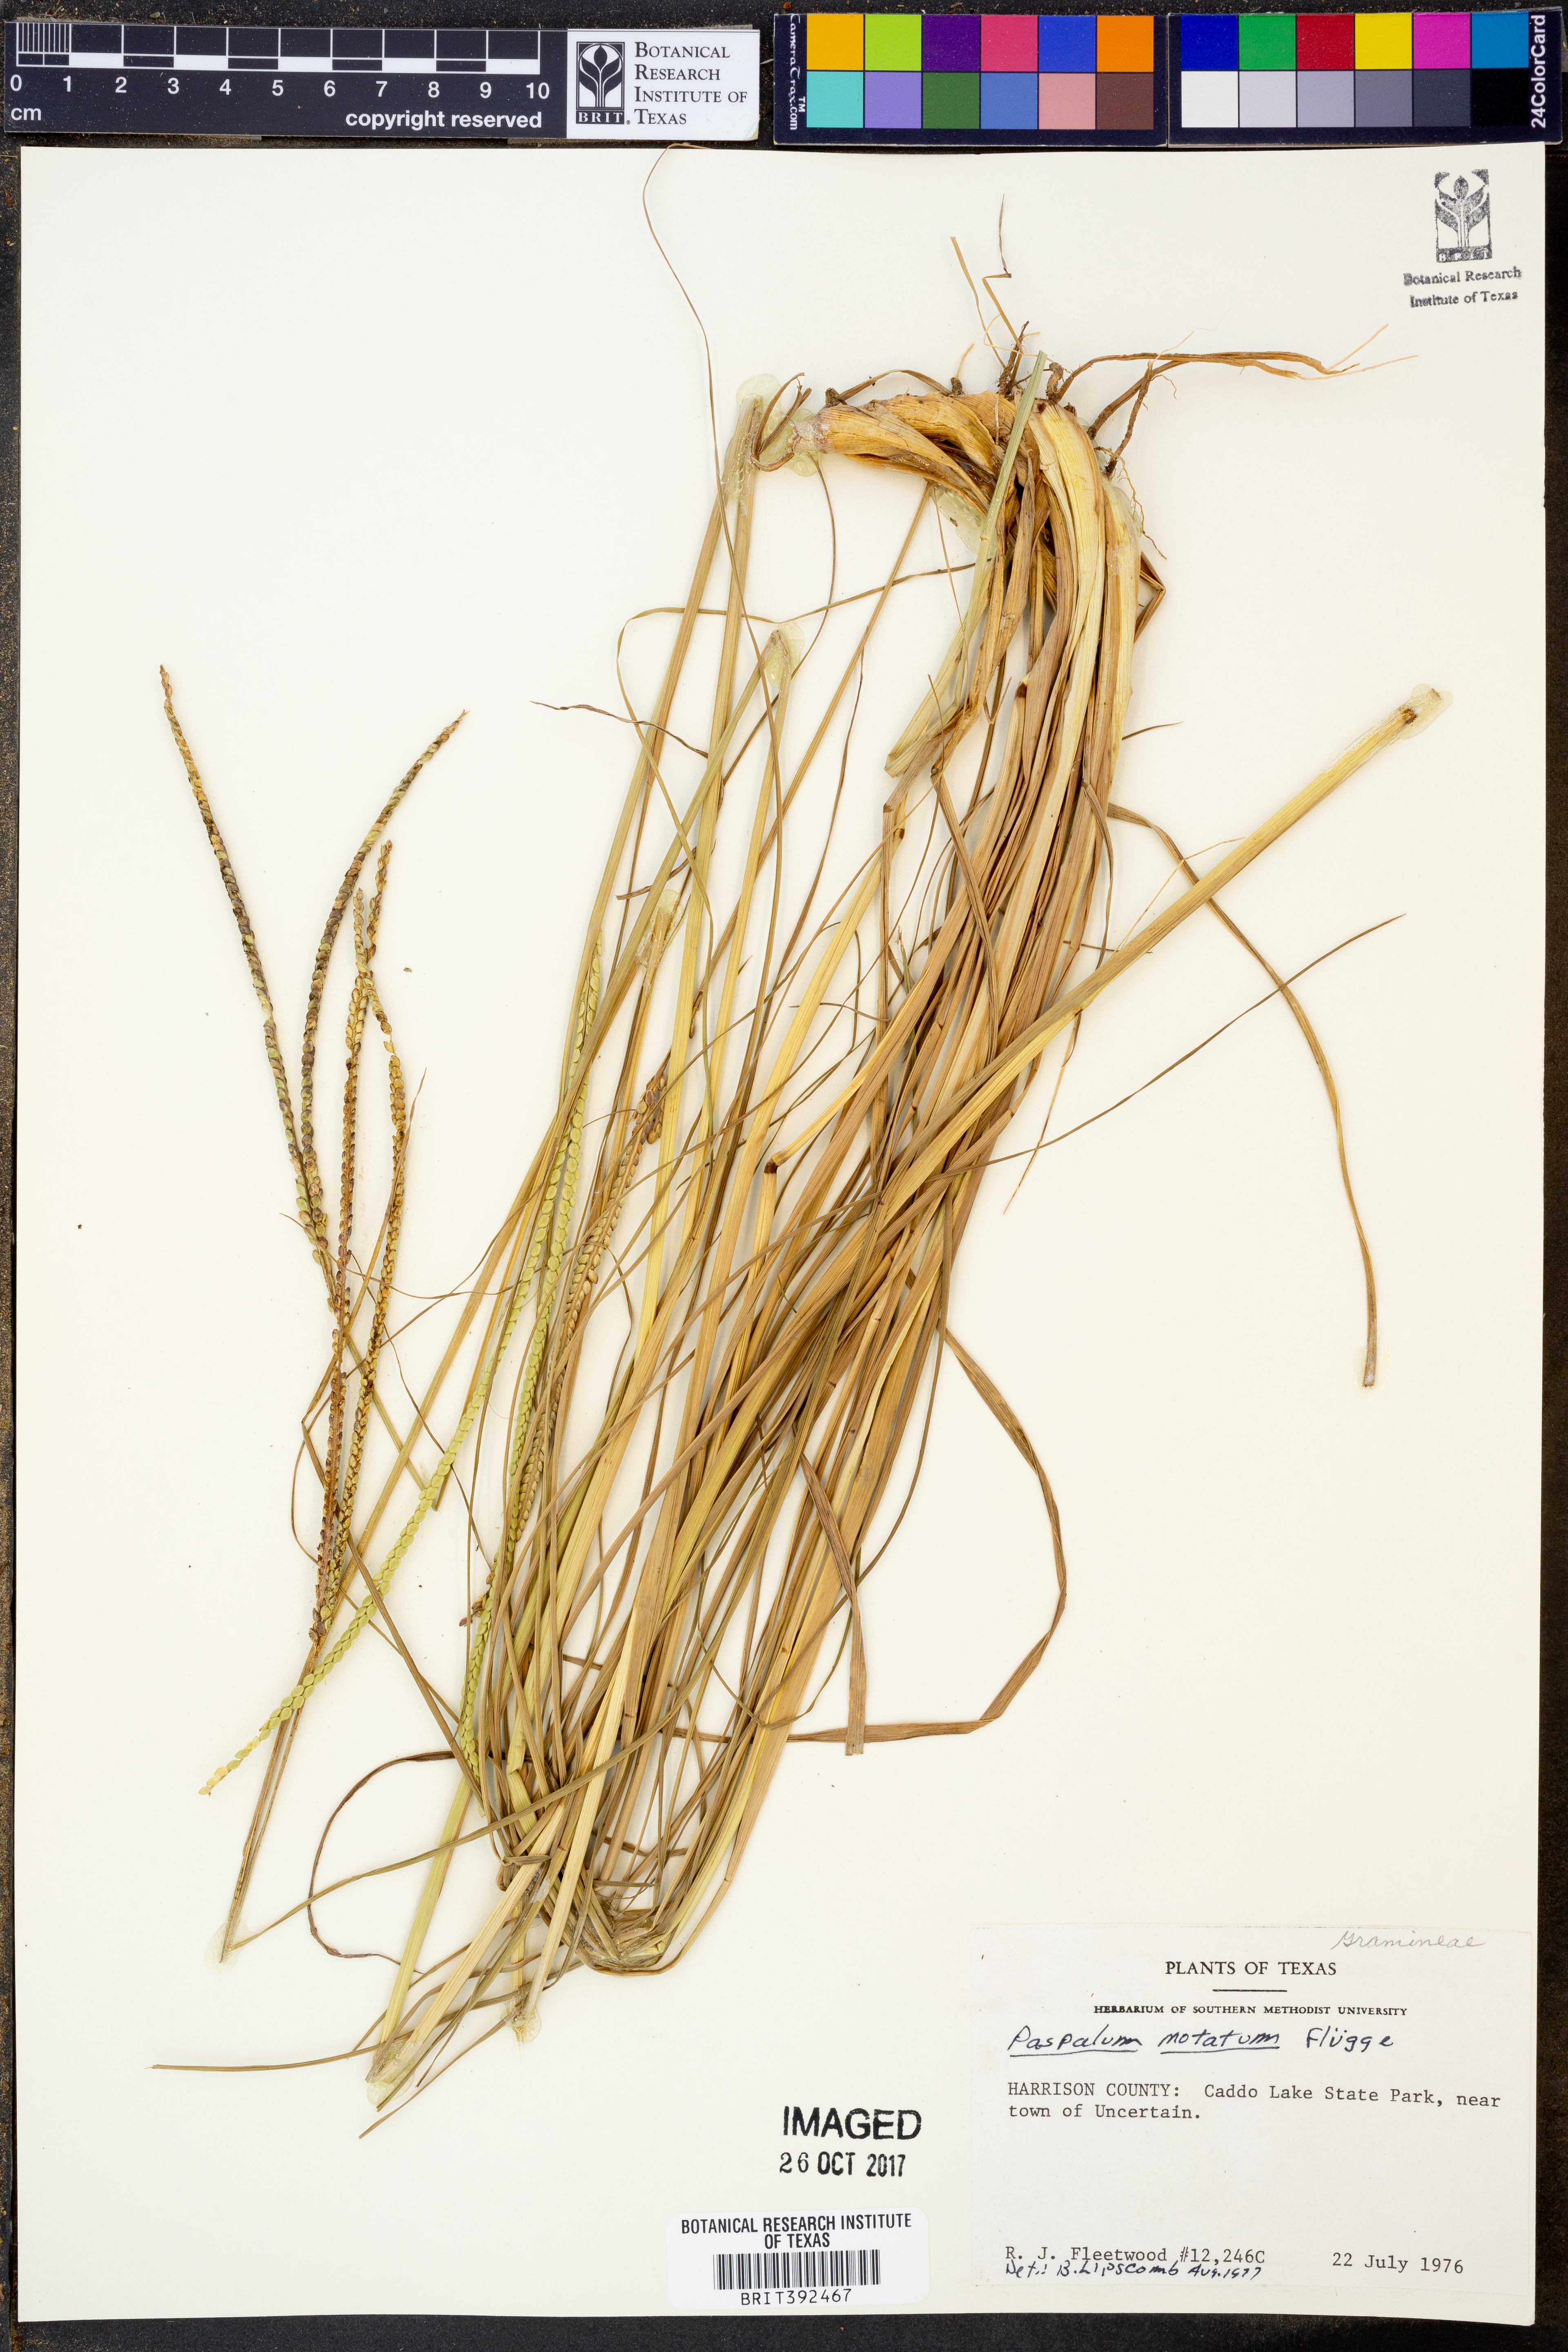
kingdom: Plantae
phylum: Tracheophyta
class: Liliopsida
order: Poales
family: Poaceae
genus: Paspalum
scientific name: Paspalum notatum
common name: Bahiagrass
